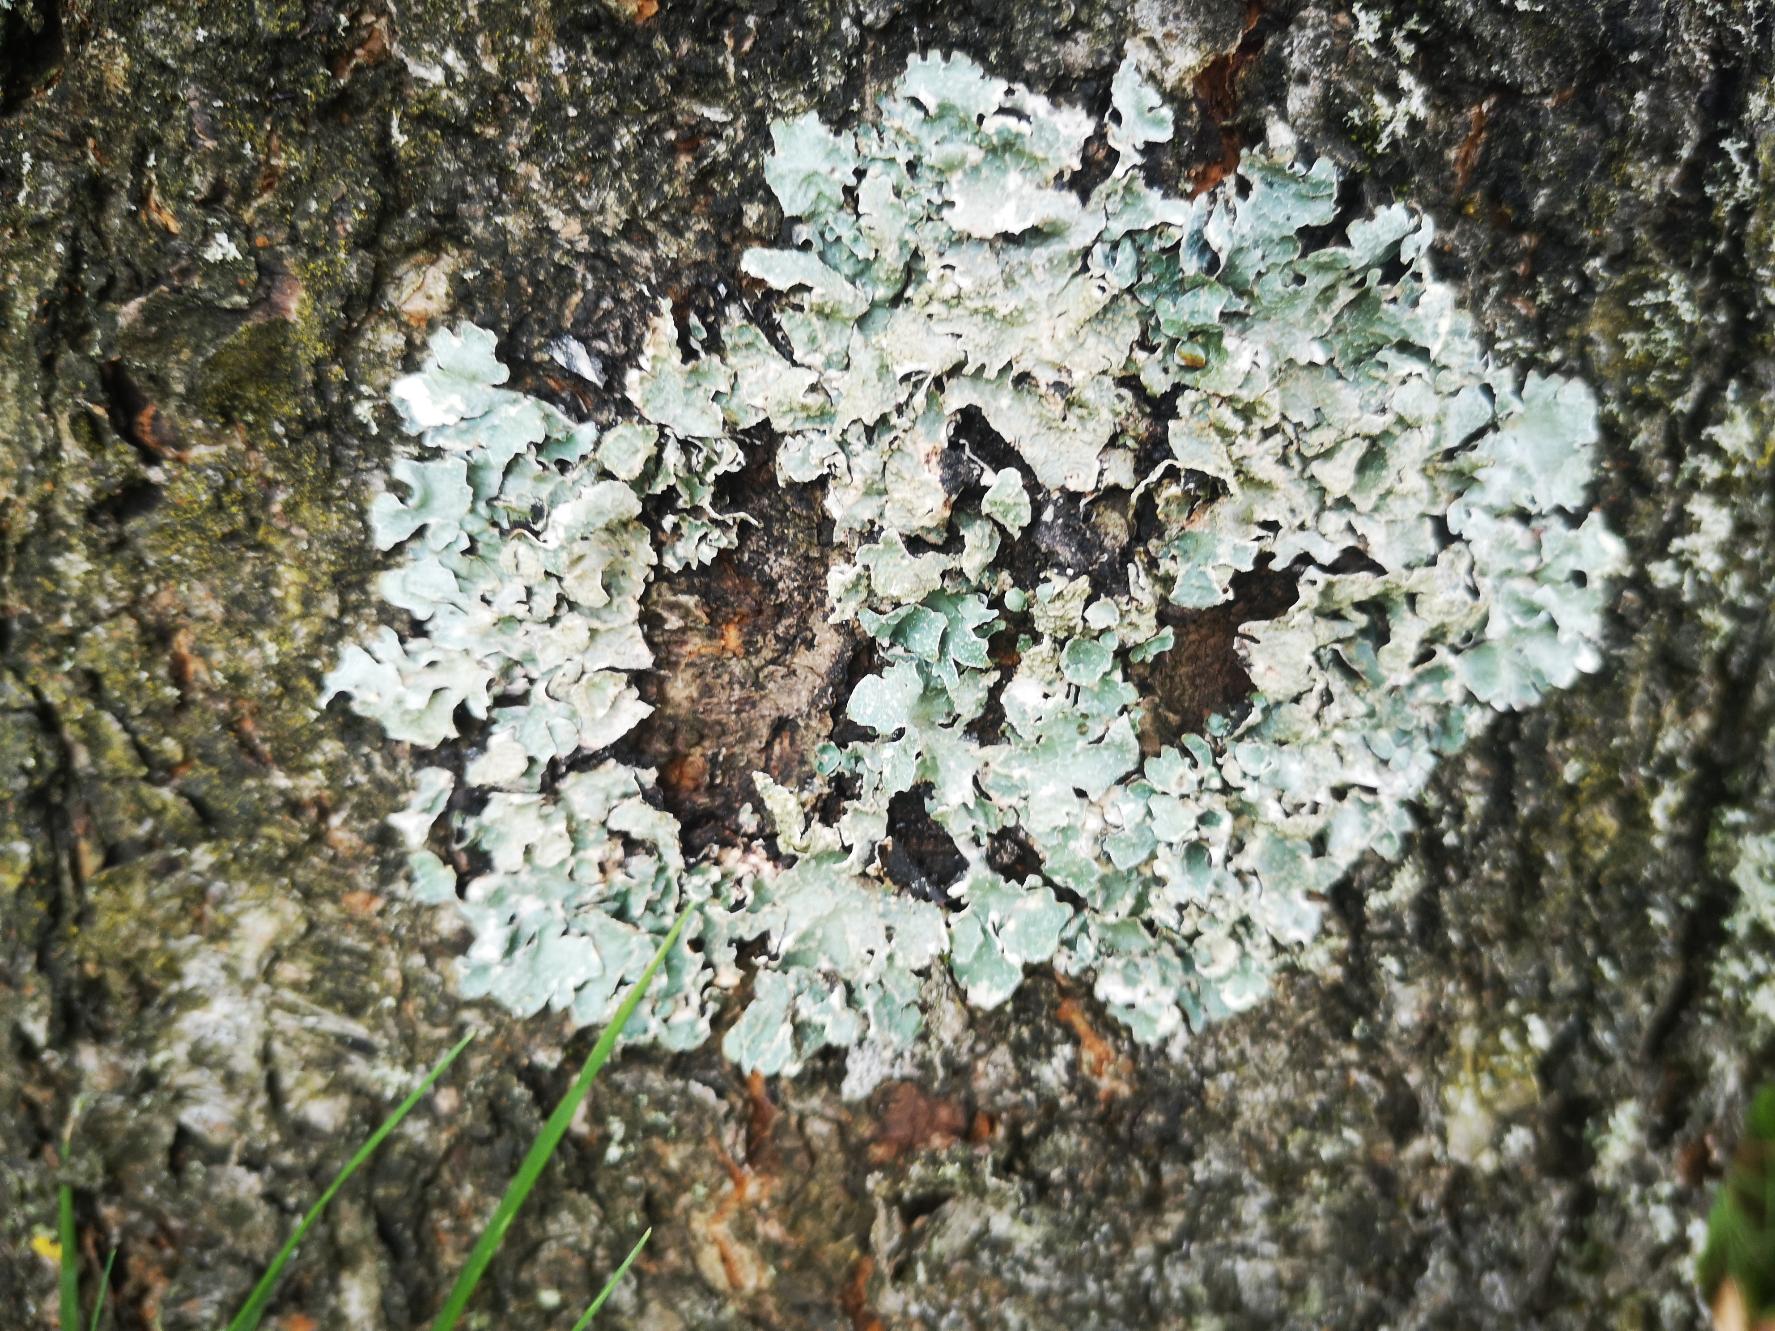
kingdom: Fungi
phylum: Ascomycota
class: Lecanoromycetes
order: Lecanorales
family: Parmeliaceae
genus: Parmelia
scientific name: Parmelia sulcata
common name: Rynket skållav
